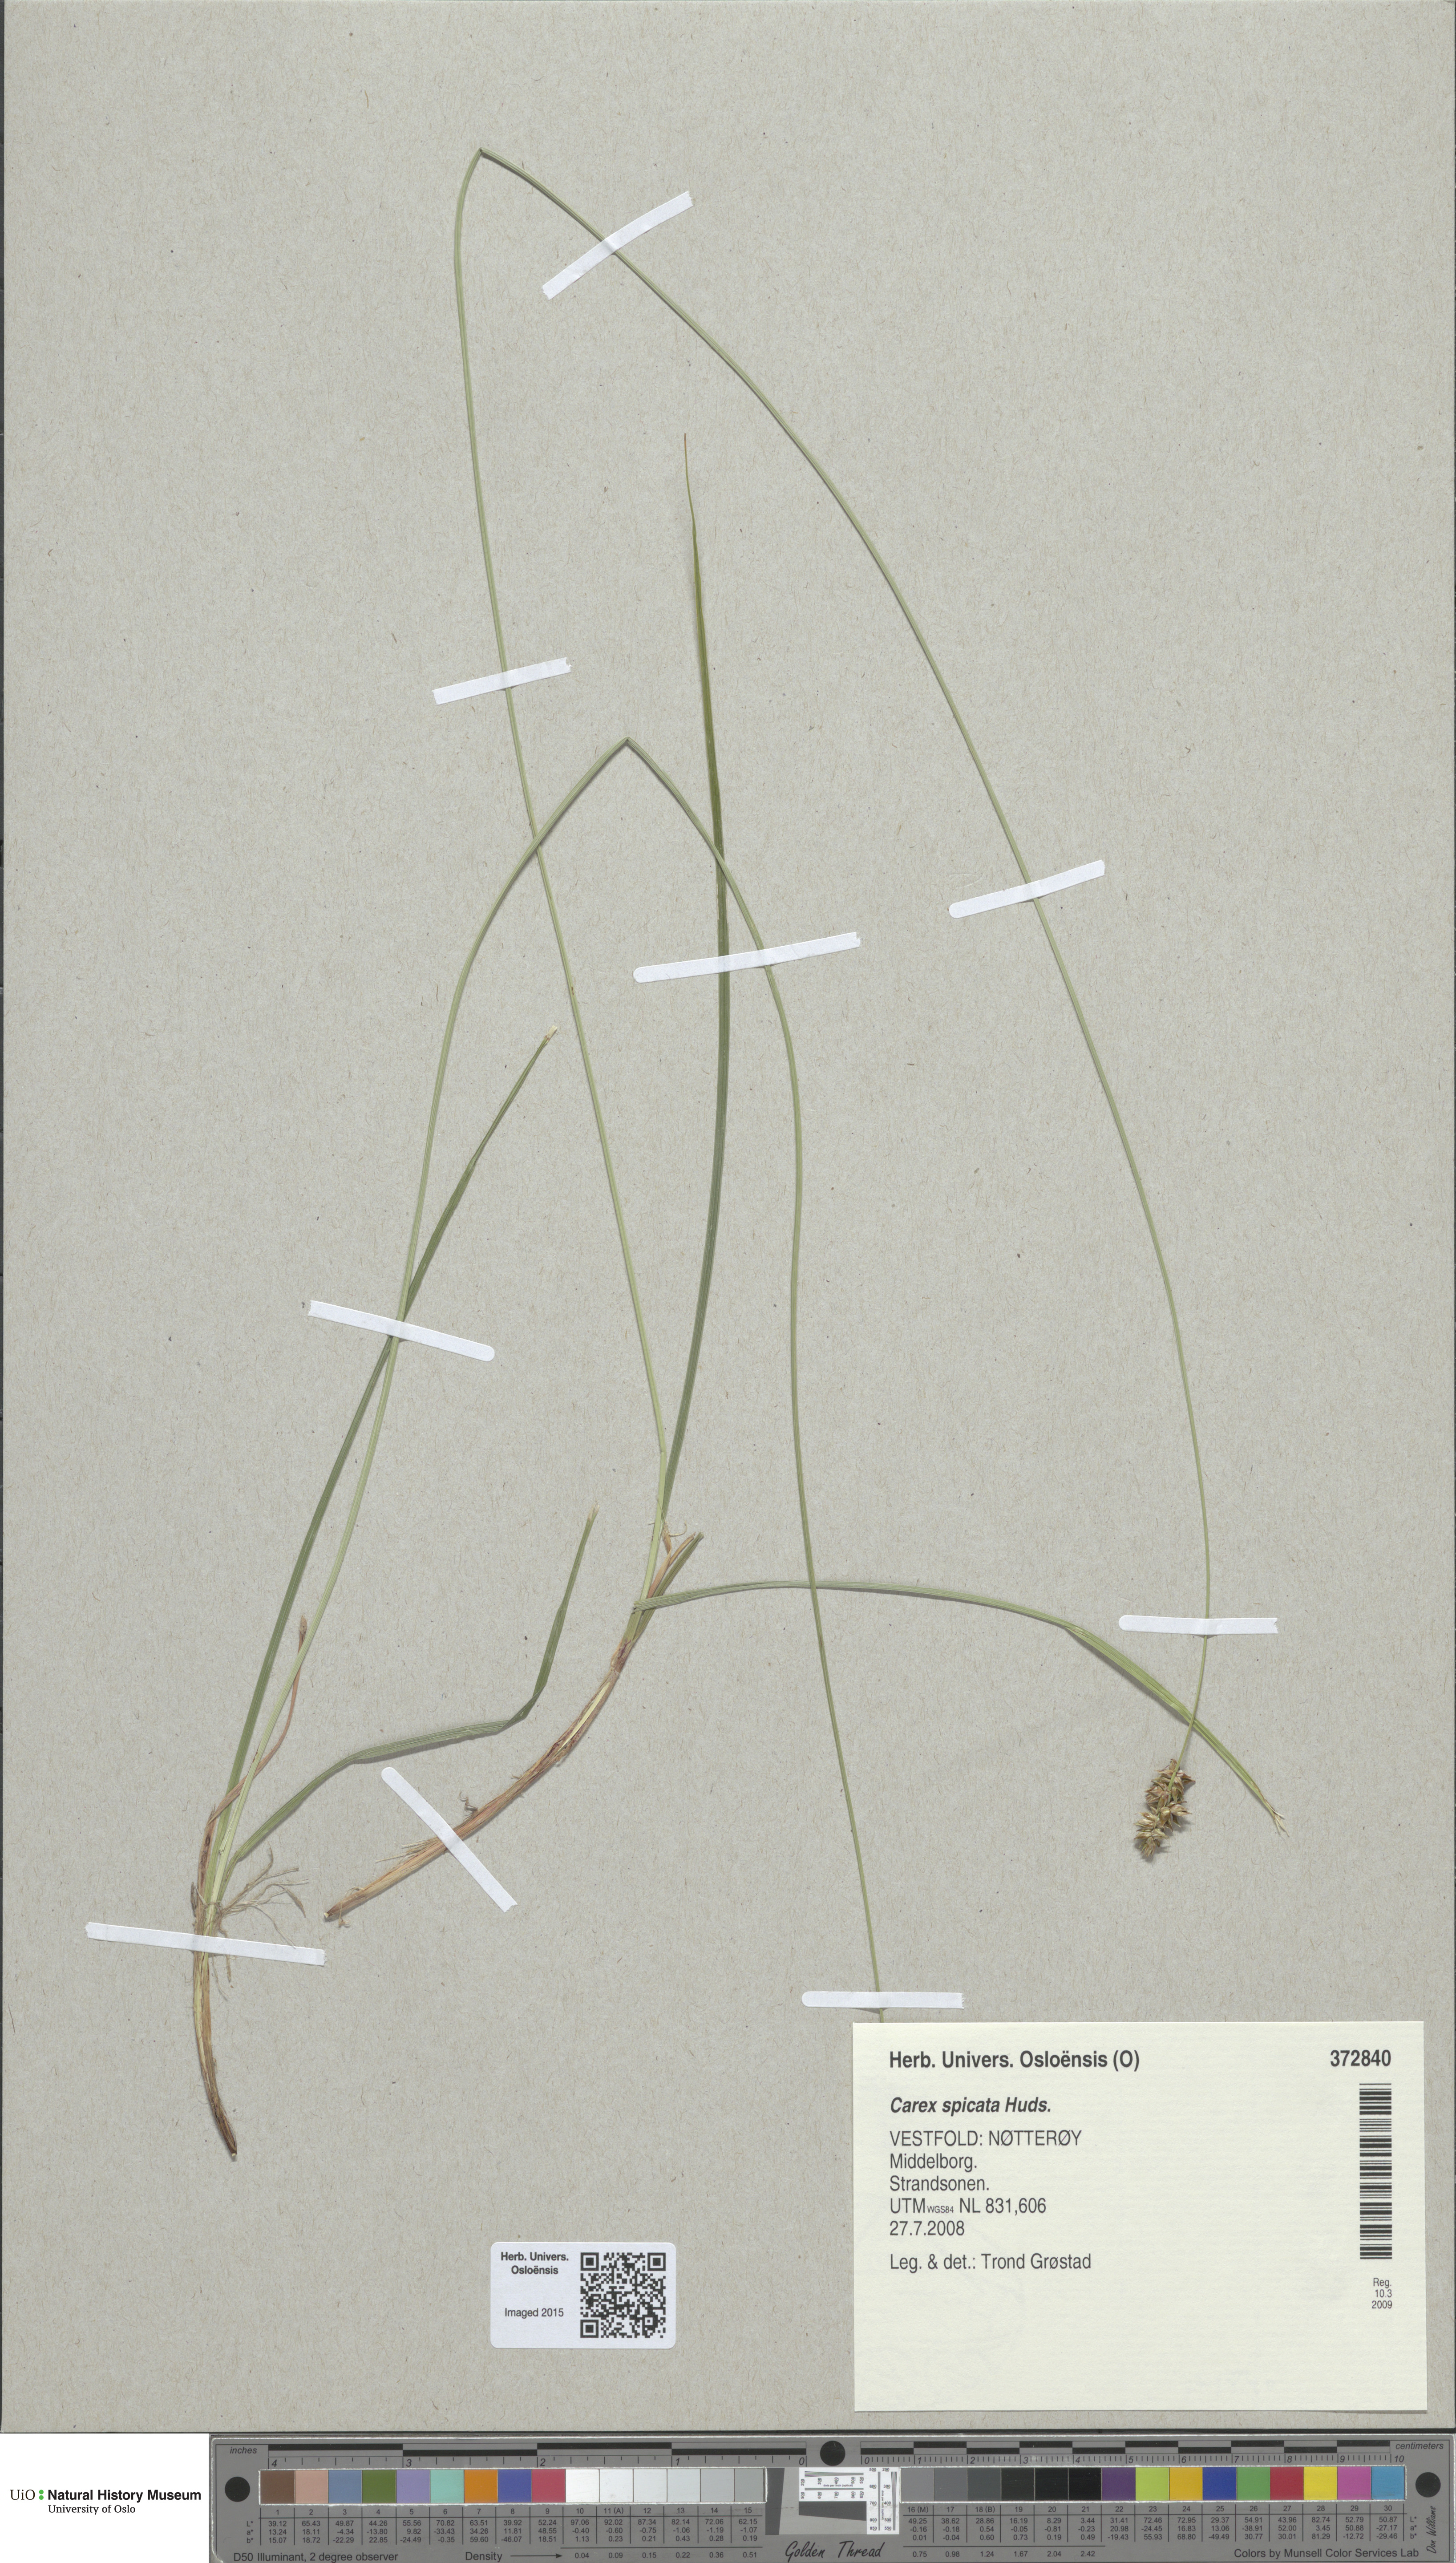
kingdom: Plantae
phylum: Tracheophyta
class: Liliopsida
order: Poales
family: Cyperaceae
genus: Carex
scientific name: Carex spicata
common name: Spiked sedge
